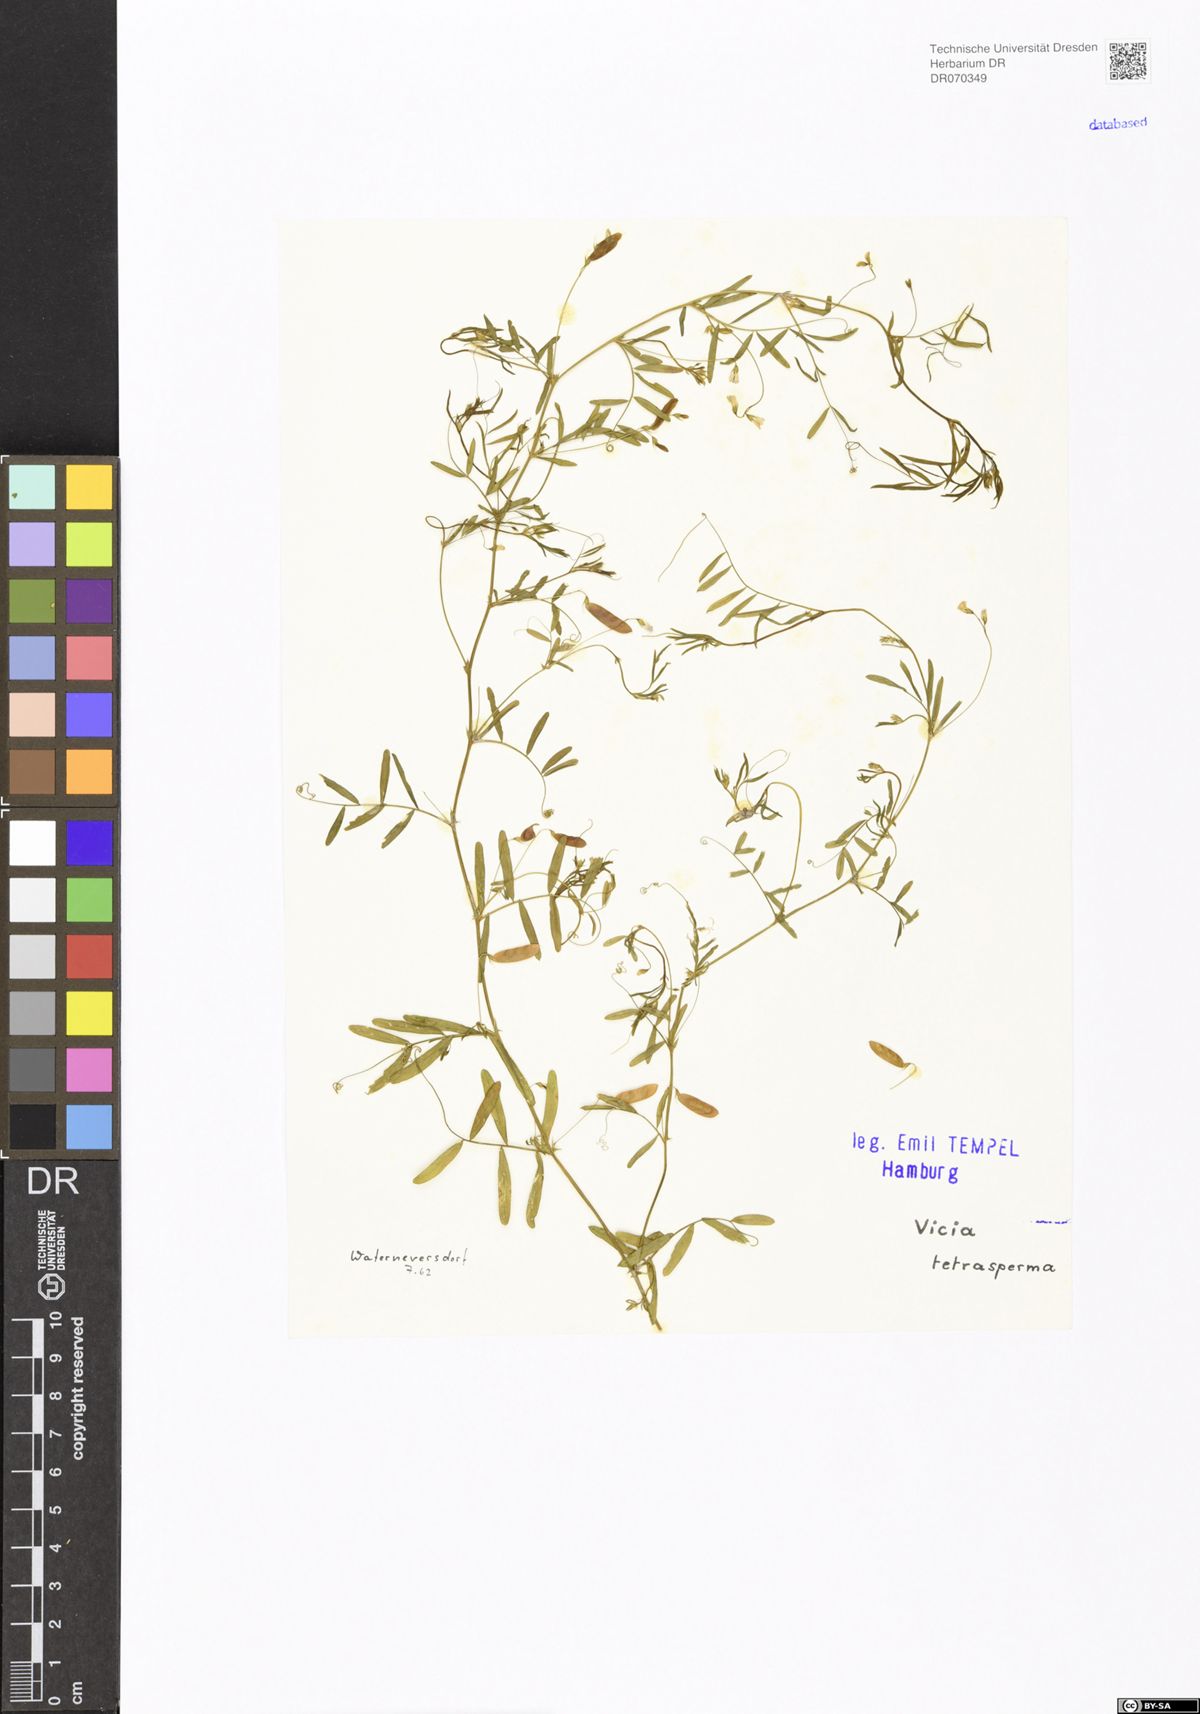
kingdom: Plantae
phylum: Tracheophyta
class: Magnoliopsida
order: Fabales
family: Fabaceae
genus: Vicia
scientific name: Vicia tetrasperma
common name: Smooth tare
